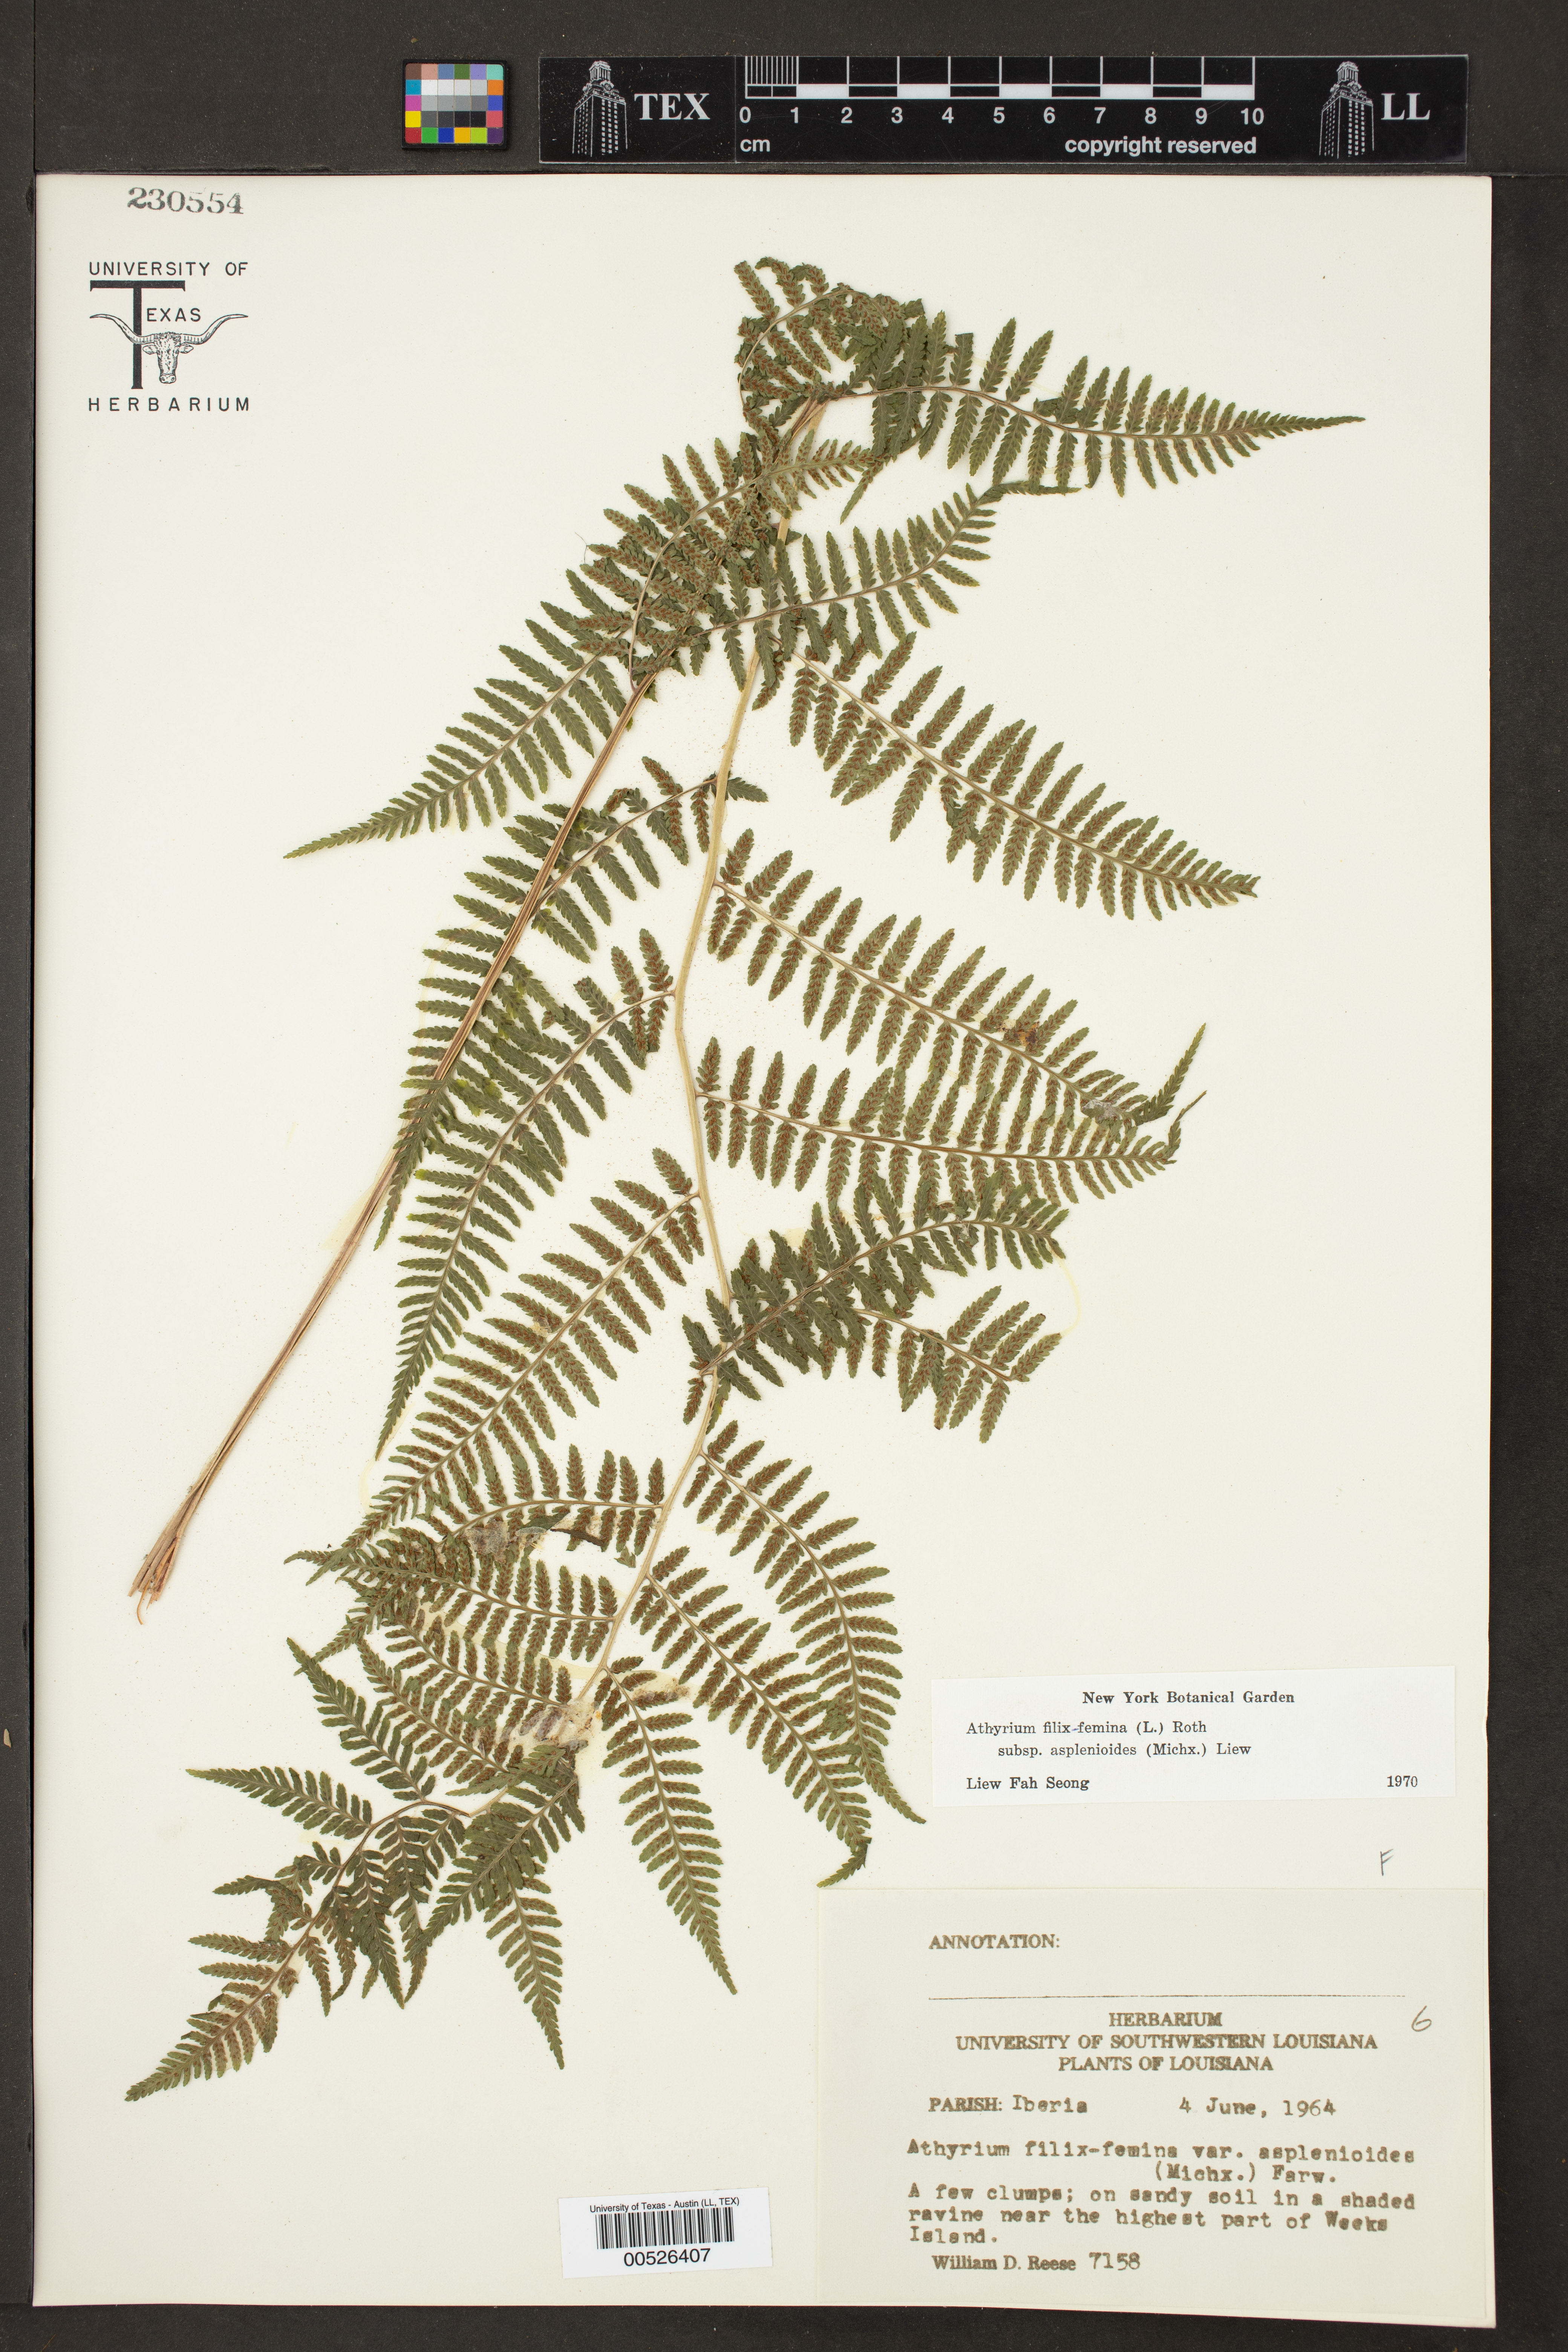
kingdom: Plantae
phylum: Tracheophyta
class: Polypodiopsida
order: Polypodiales
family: Athyriaceae
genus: Athyrium
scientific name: Athyrium asplenioides
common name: Southern lady fern
